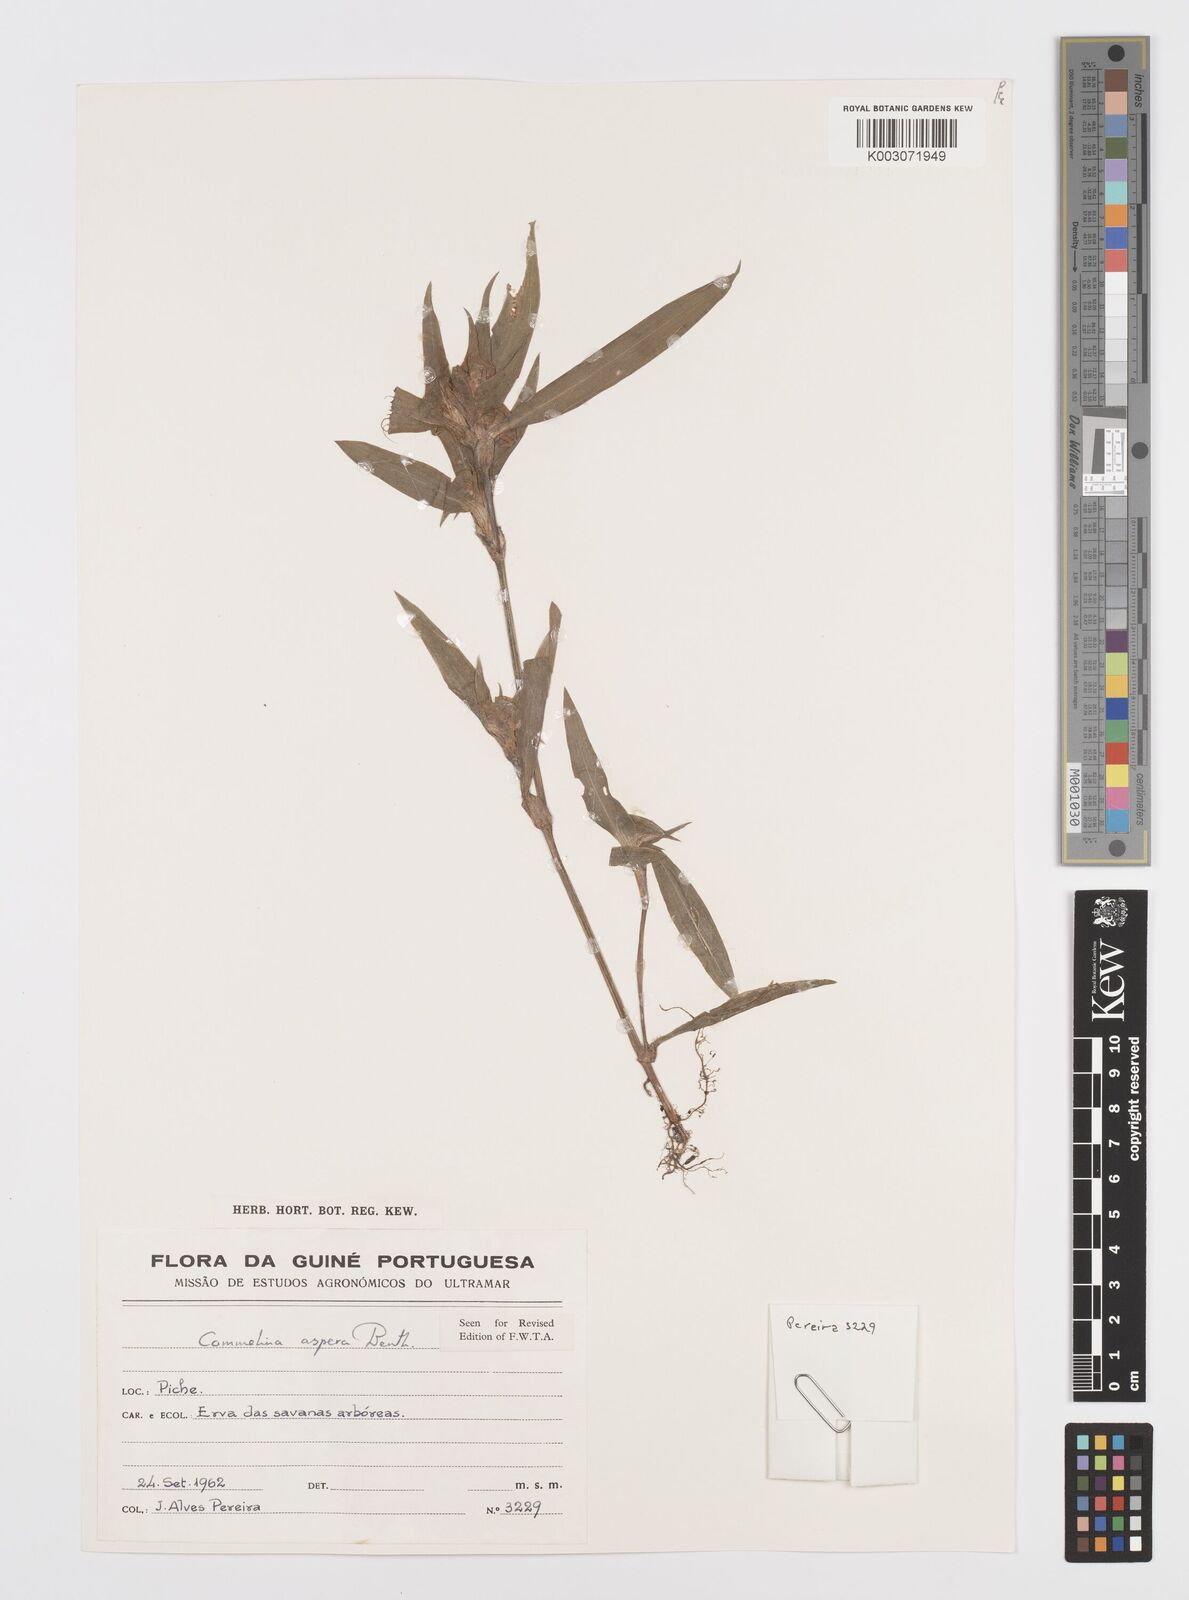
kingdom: Plantae
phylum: Tracheophyta
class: Liliopsida
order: Commelinales
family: Commelinaceae
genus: Commelina
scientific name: Commelina aspera
